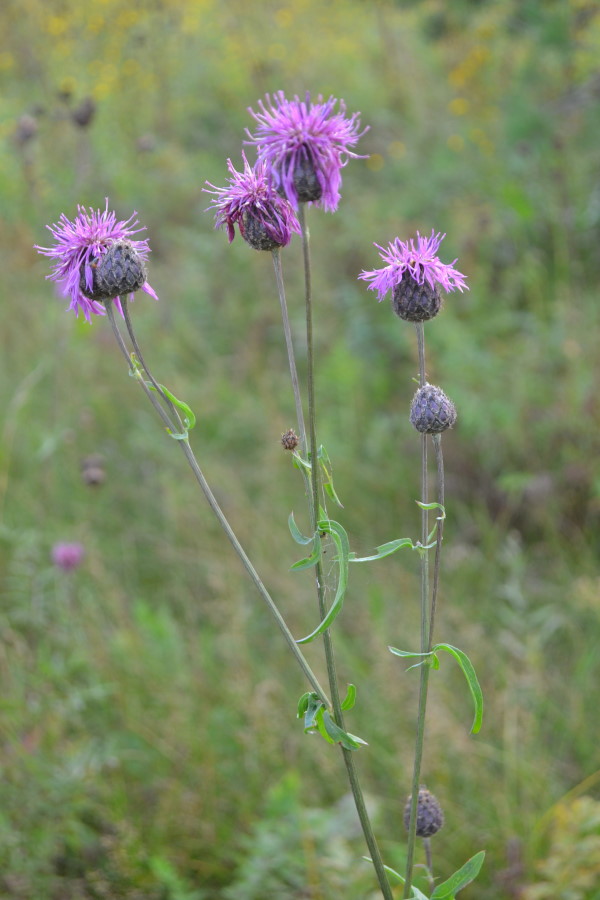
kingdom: Plantae
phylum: Tracheophyta
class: Magnoliopsida
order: Asterales
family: Asteraceae
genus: Centaurea
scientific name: Centaurea scabiosa
